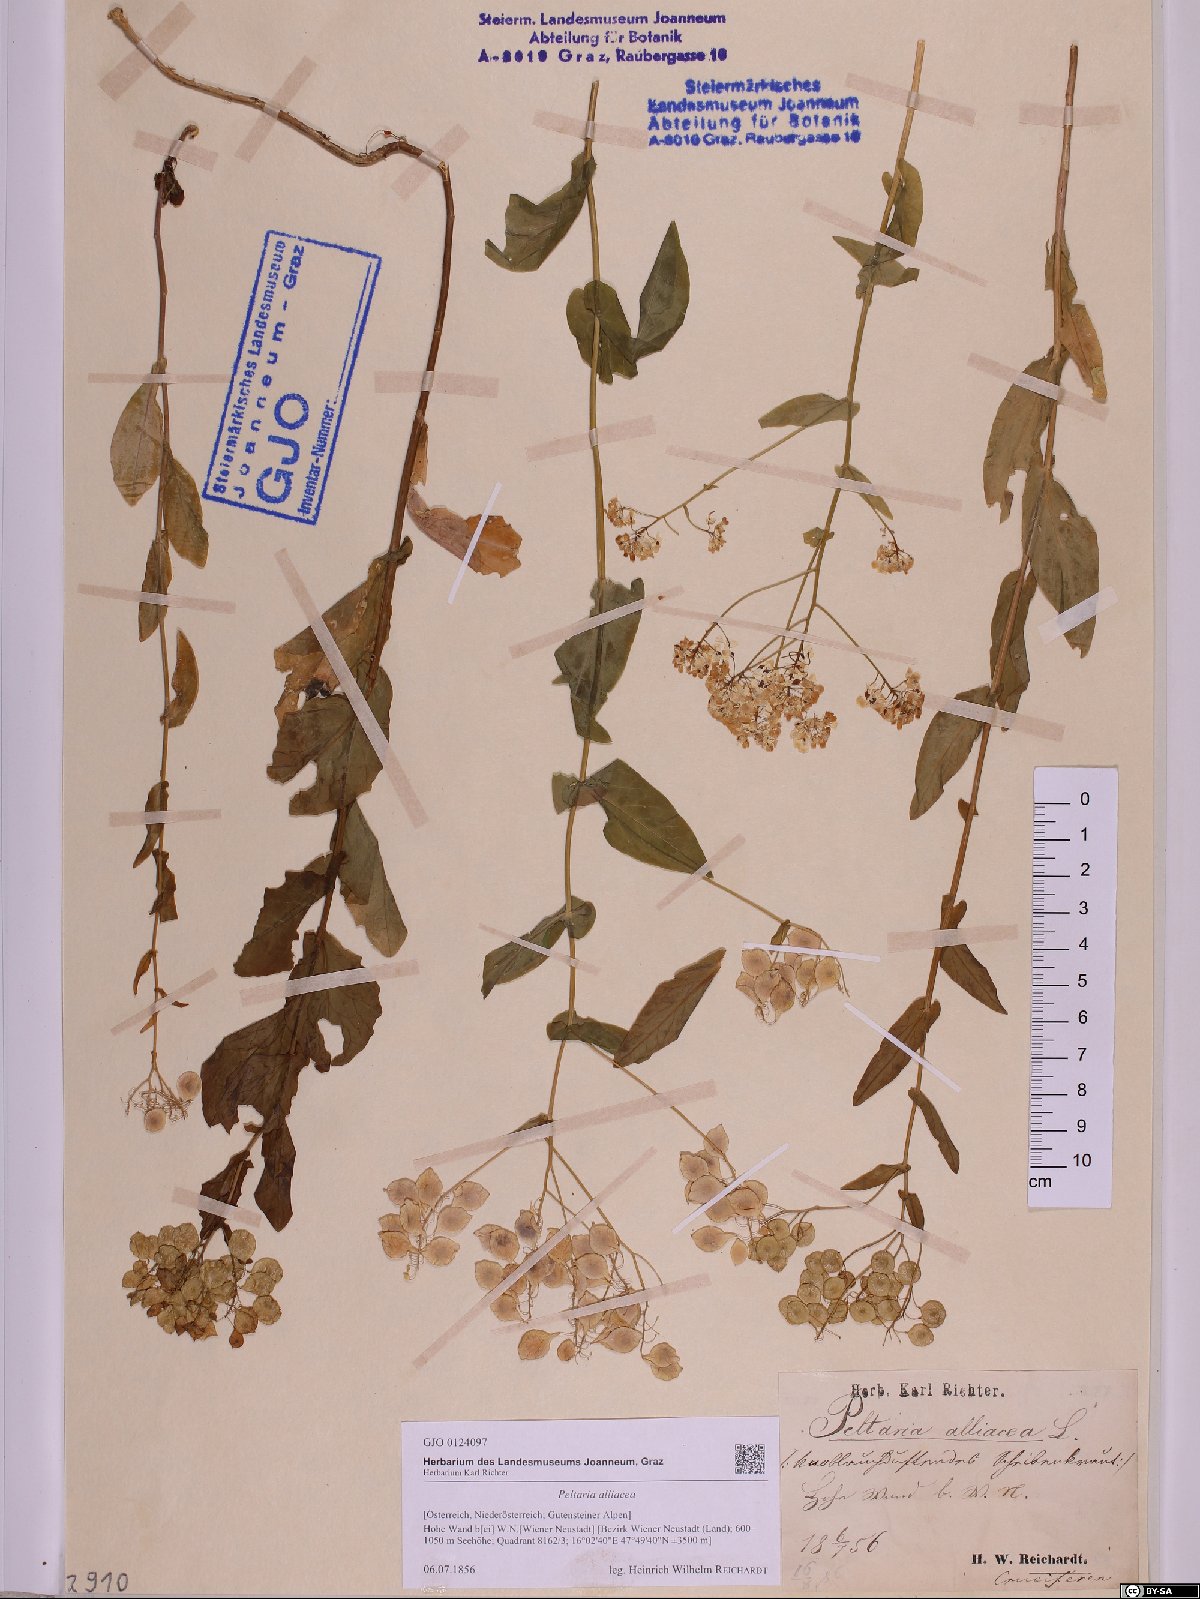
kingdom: Plantae
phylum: Tracheophyta
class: Magnoliopsida
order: Brassicales
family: Brassicaceae
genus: Peltaria
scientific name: Peltaria alliacea
